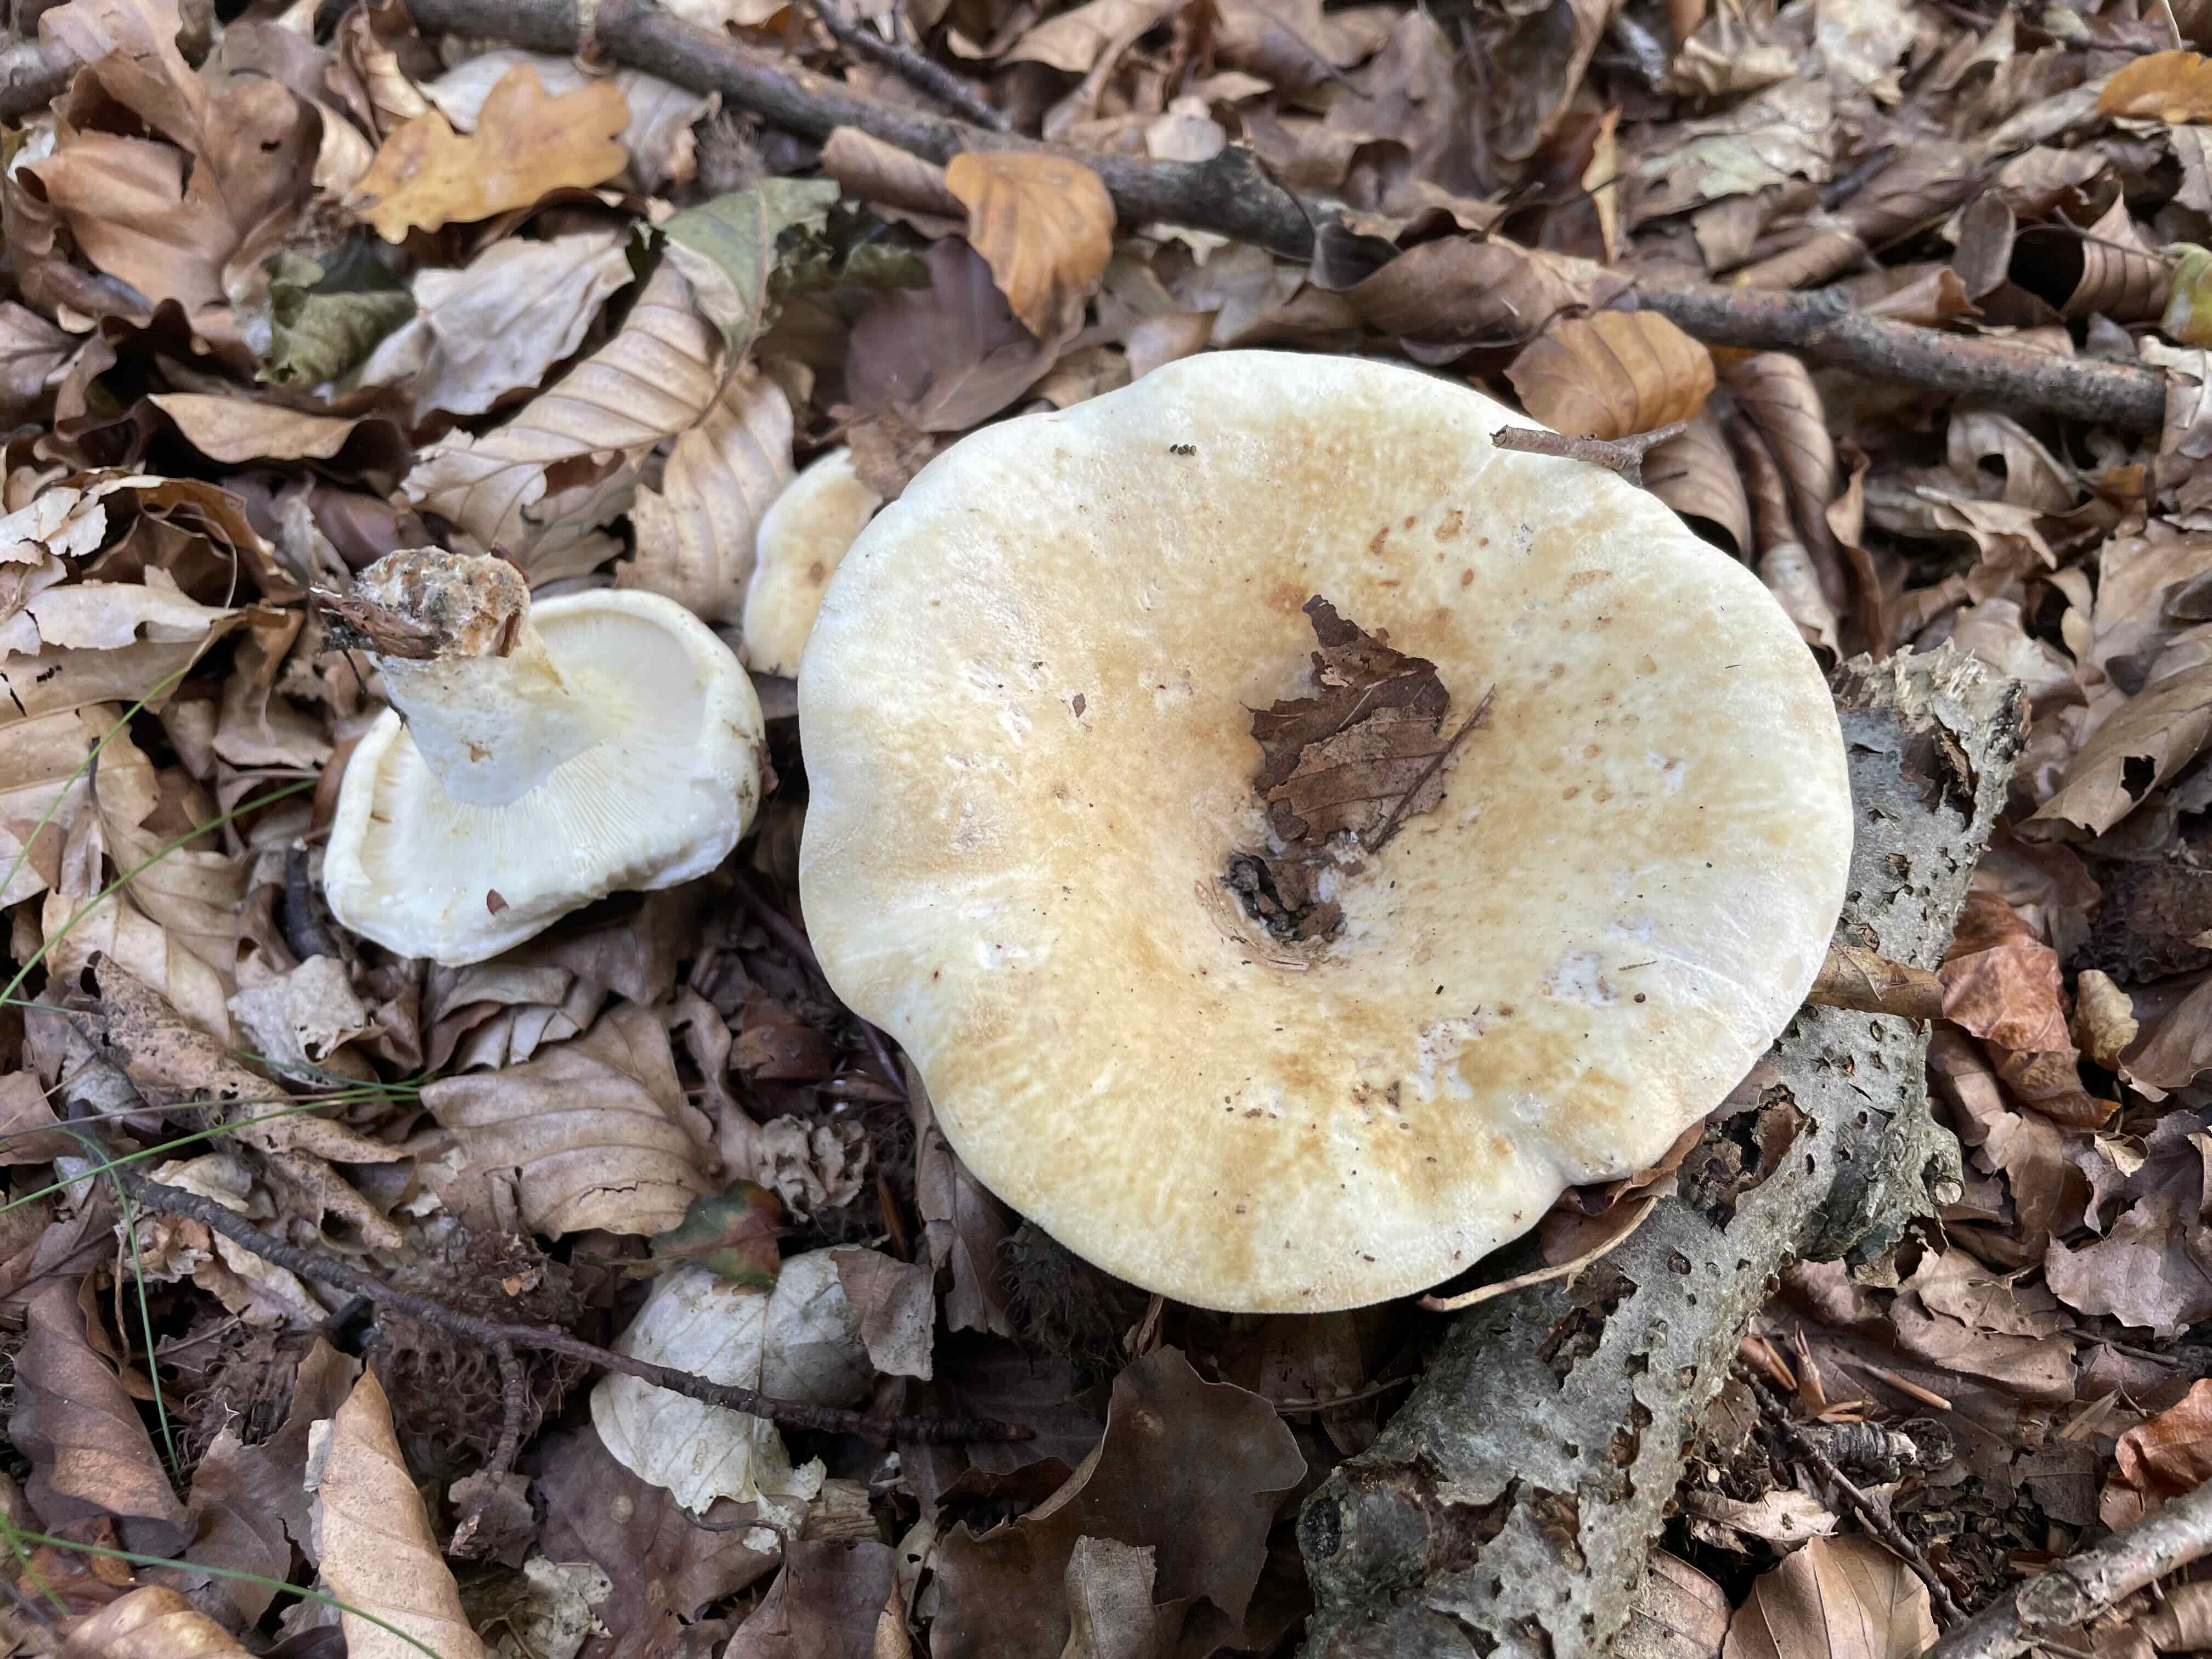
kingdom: Fungi
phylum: Basidiomycota
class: Agaricomycetes
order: Russulales
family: Russulaceae
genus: Lactifluus
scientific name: Lactifluus vellereus
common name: hvidfiltet mælkehat
